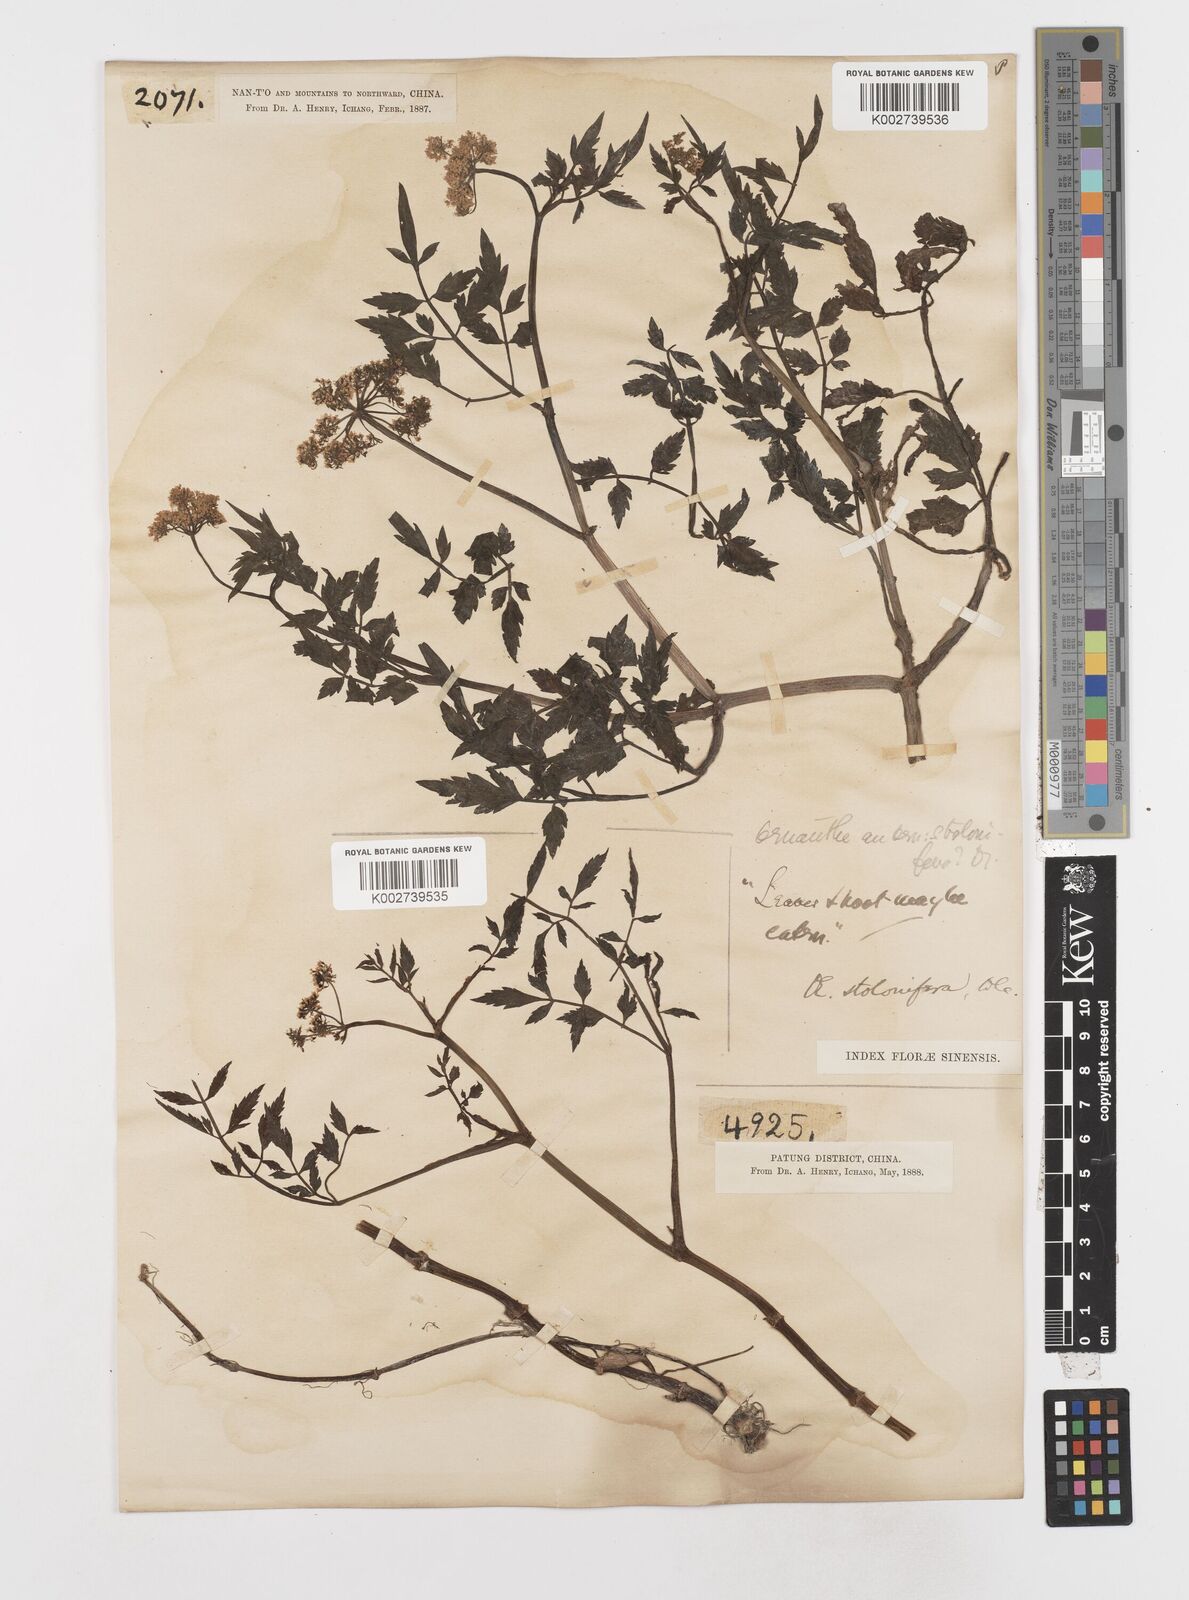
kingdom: Plantae
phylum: Tracheophyta
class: Magnoliopsida
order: Apiales
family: Apiaceae
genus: Oenanthe
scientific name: Oenanthe javanica
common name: Java water-dropwort
